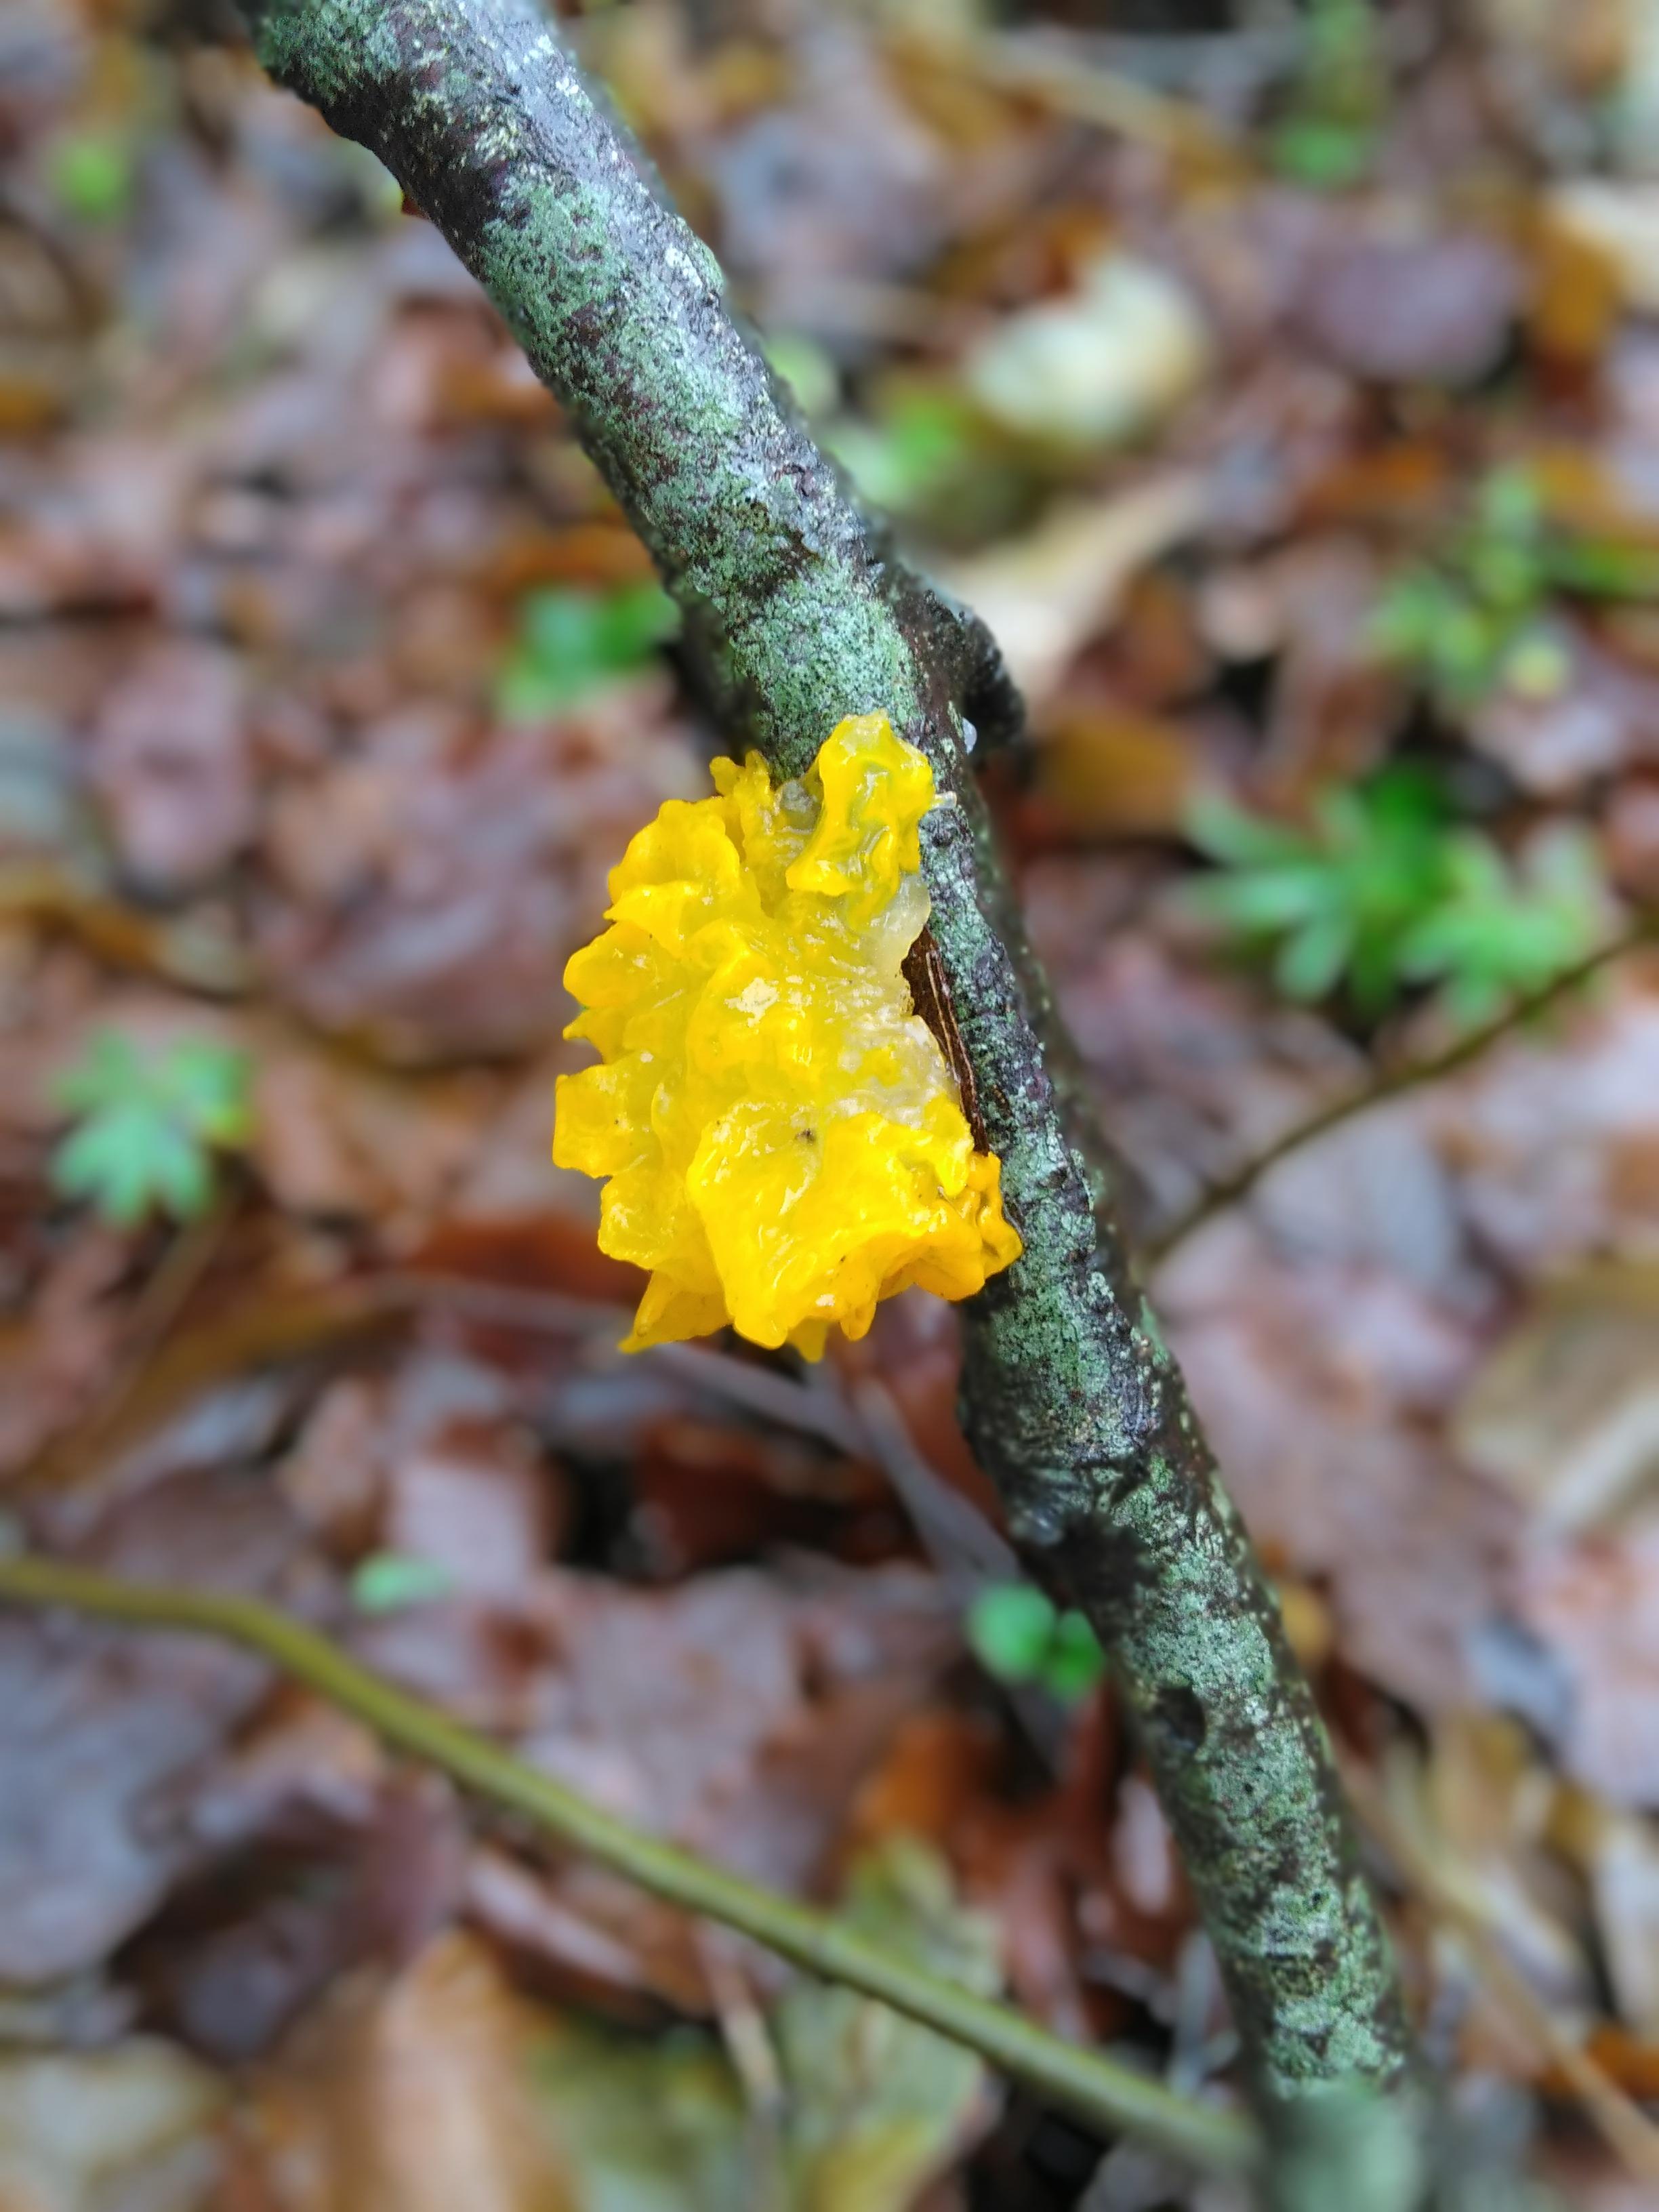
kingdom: Fungi
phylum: Basidiomycota
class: Tremellomycetes
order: Tremellales
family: Tremellaceae
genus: Tremella
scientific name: Tremella mesenterica
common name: gul bævresvamp
